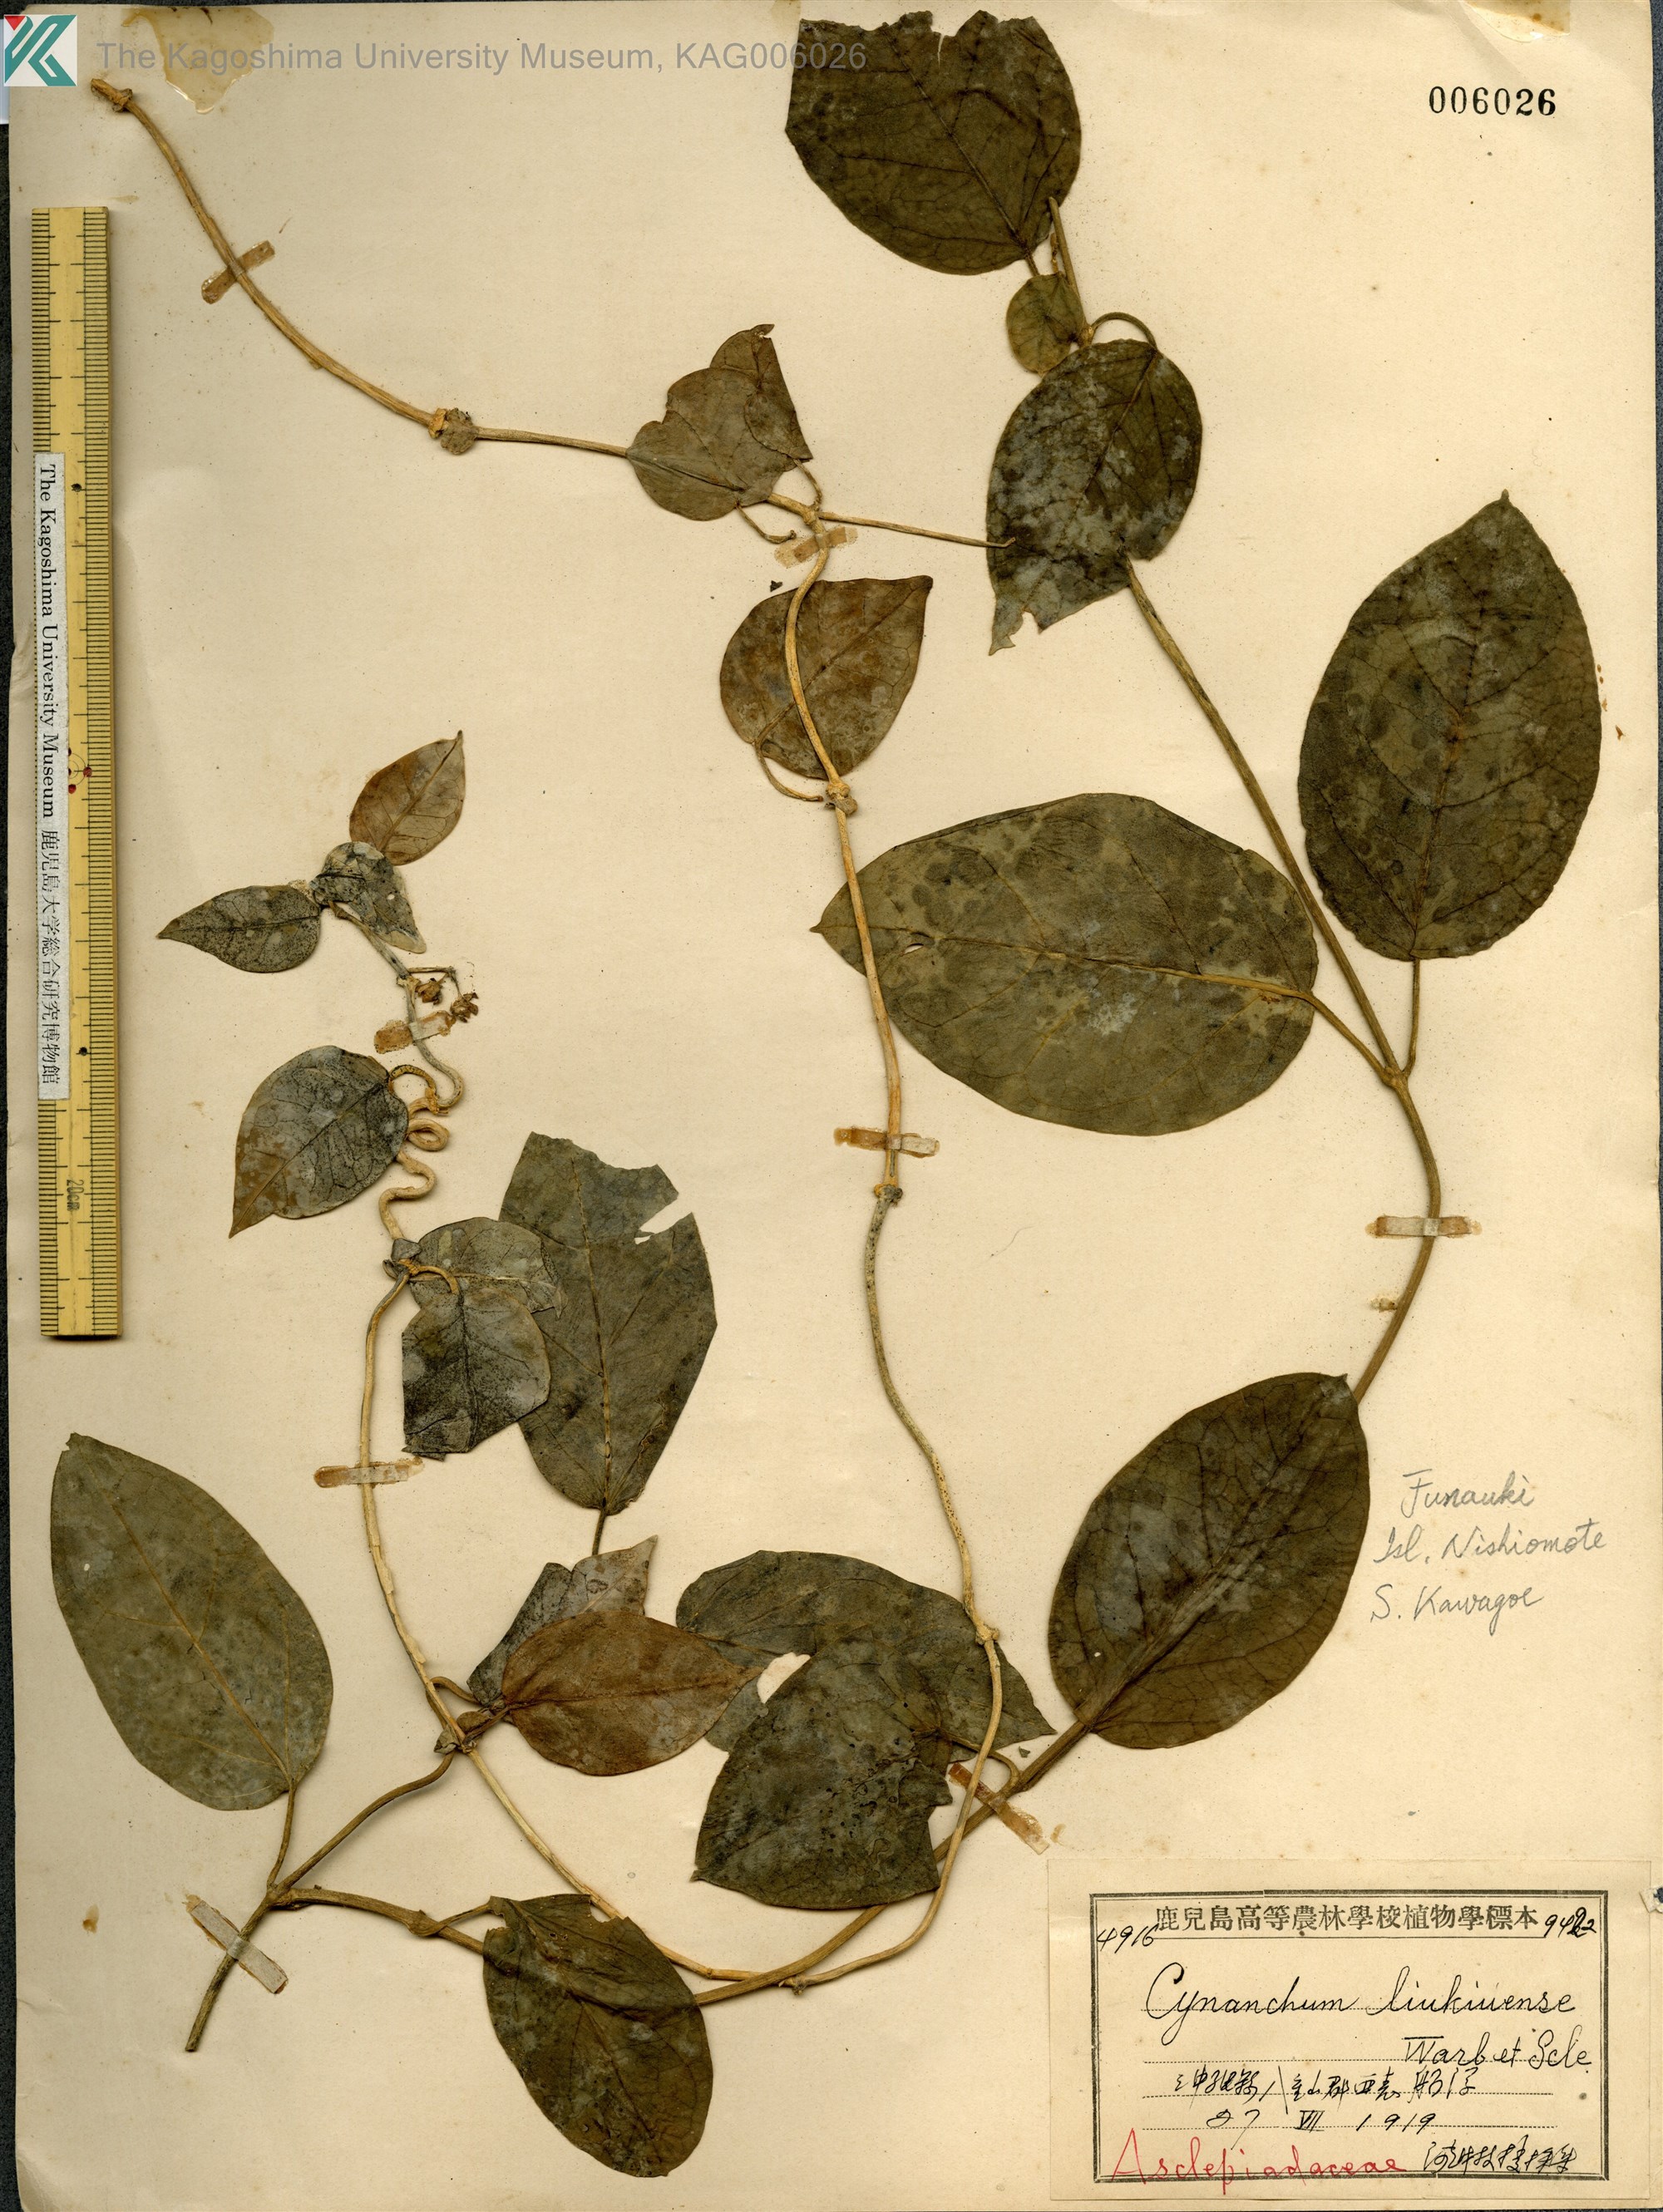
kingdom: Plantae
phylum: Tracheophyta
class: Magnoliopsida
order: Gentianales
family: Apocynaceae
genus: Cynanchum
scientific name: Cynanchum liukiuense
